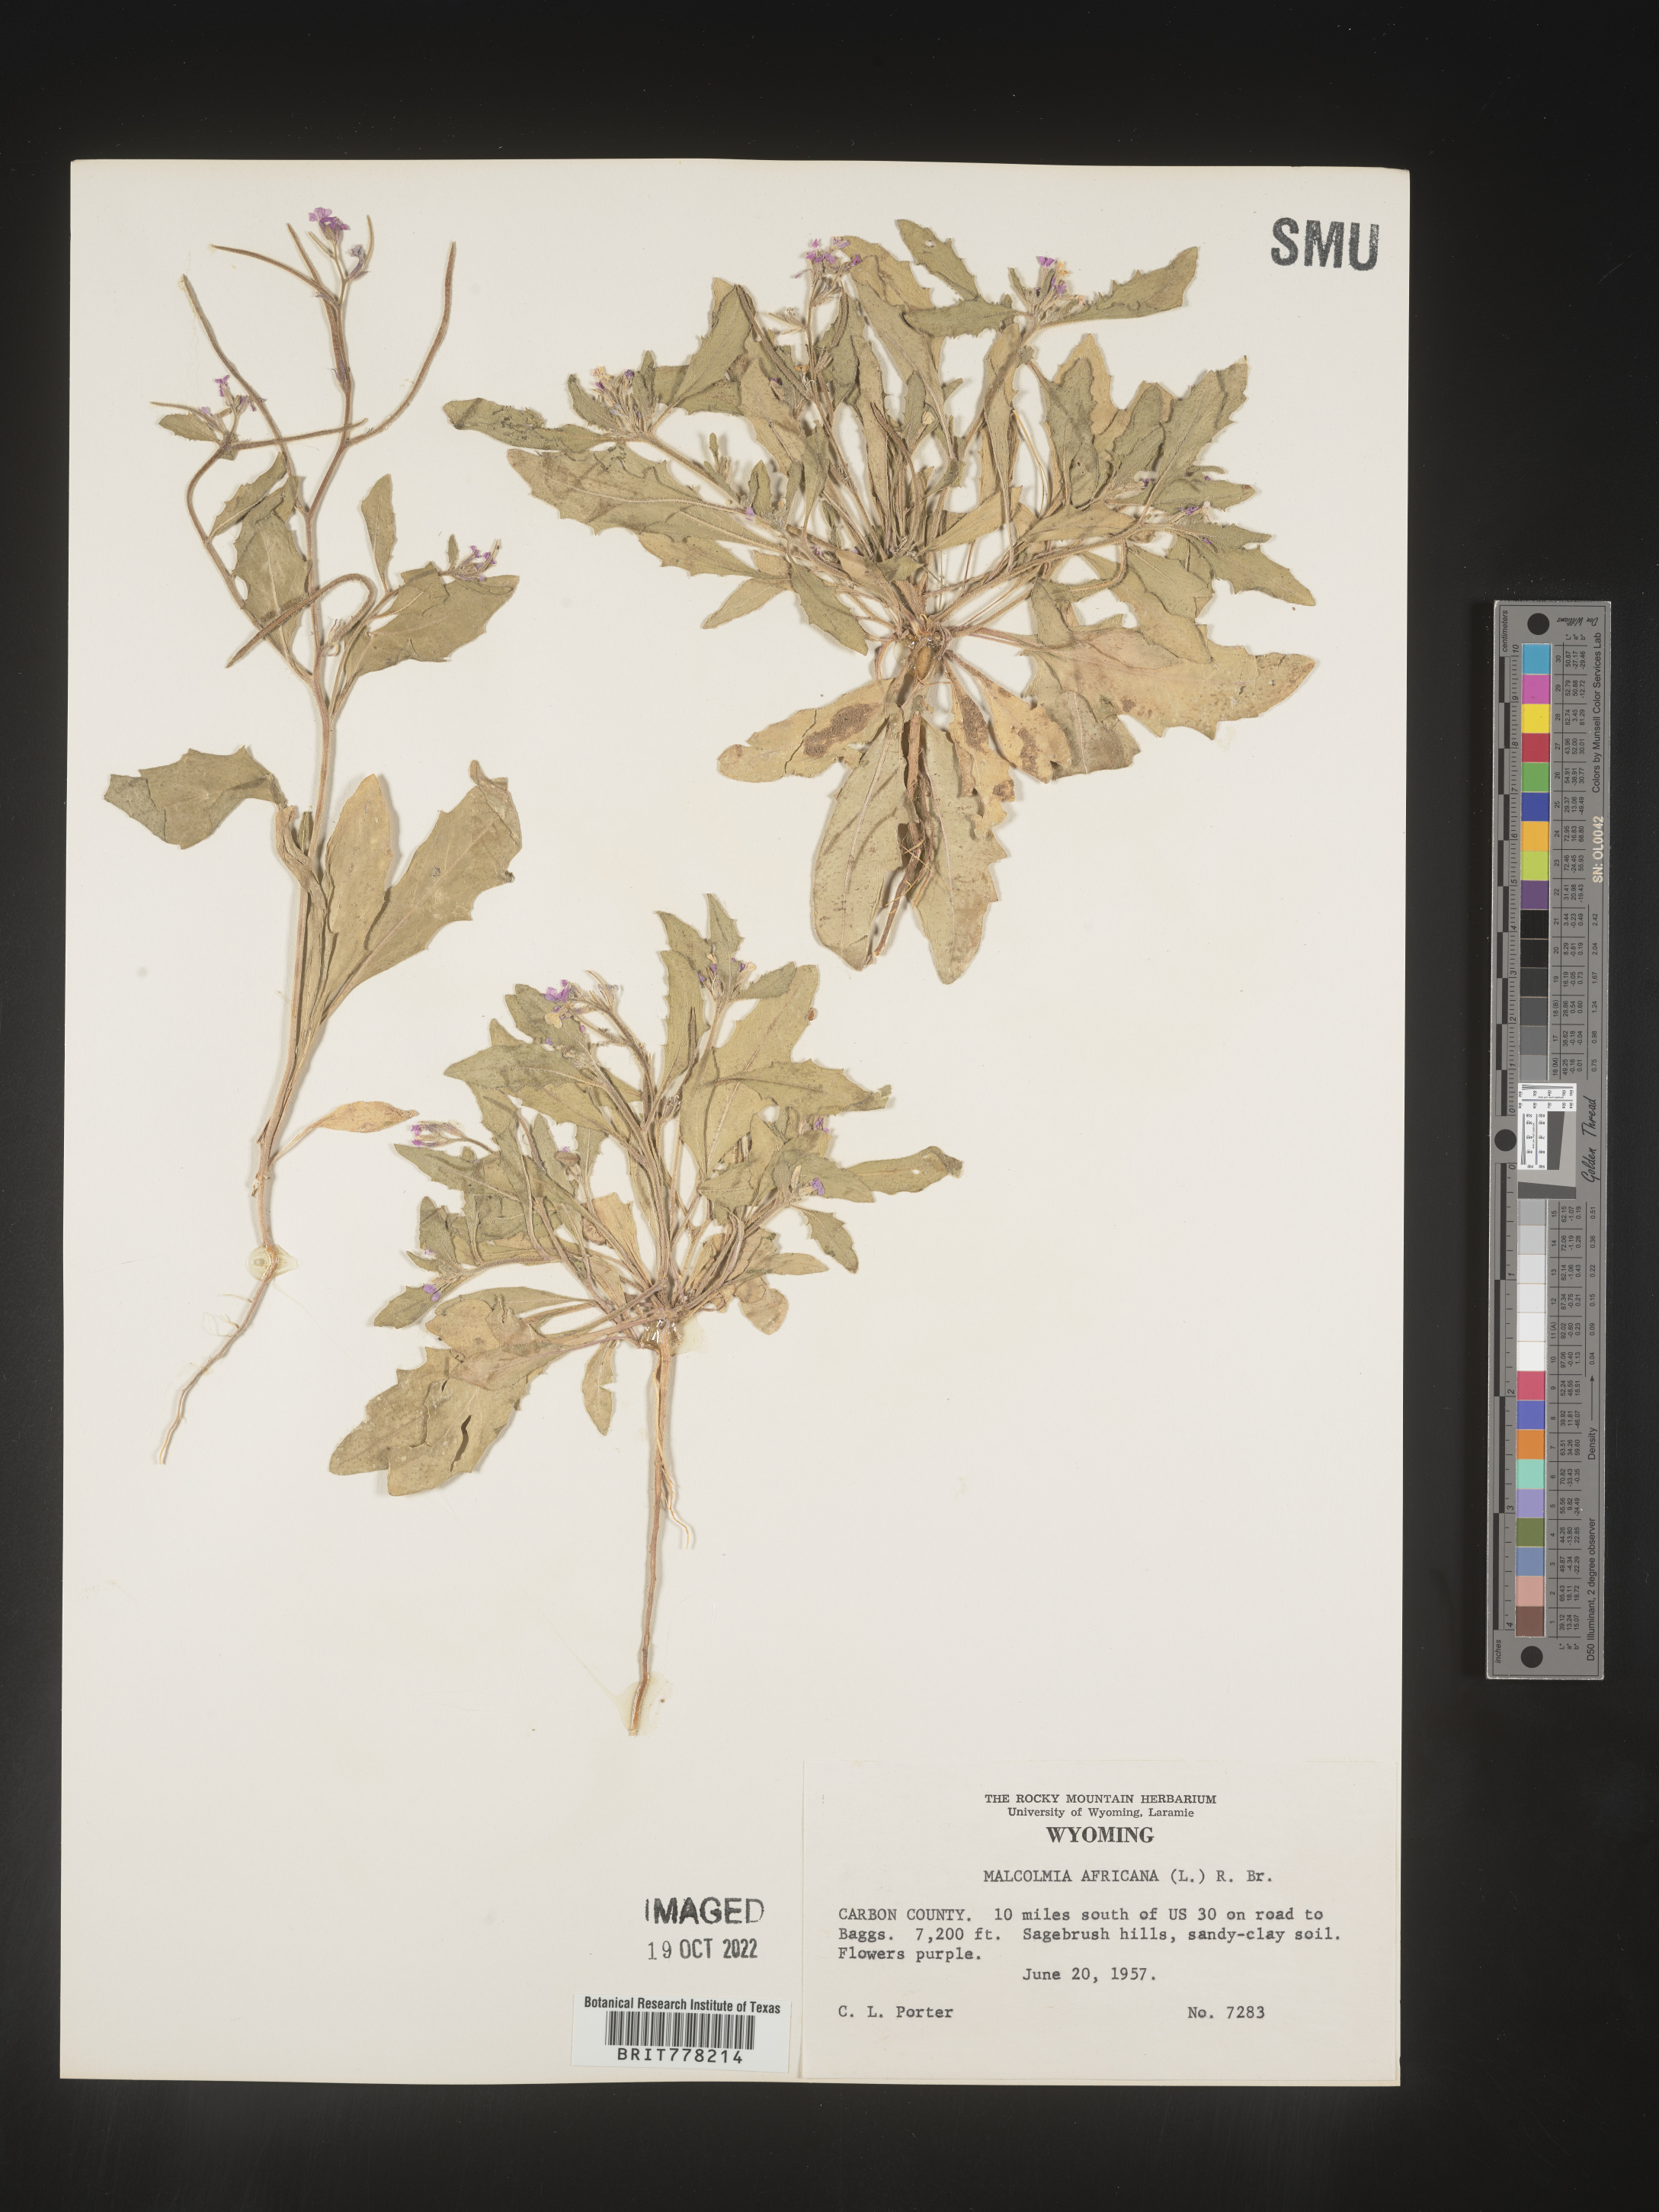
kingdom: Plantae
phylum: Tracheophyta
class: Magnoliopsida
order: Brassicales
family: Brassicaceae
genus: Malcolmia
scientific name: Malcolmia
